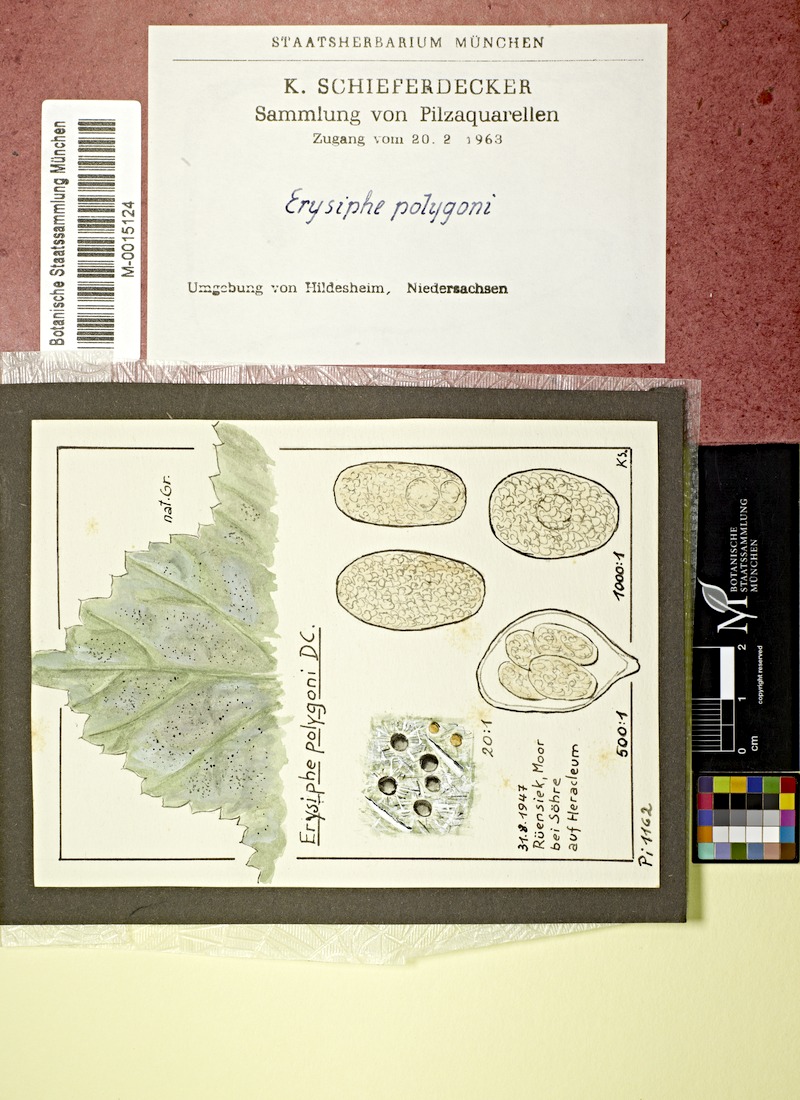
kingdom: Plantae
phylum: Tracheophyta
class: Magnoliopsida
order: Apiales
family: Apiaceae
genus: Heracleum
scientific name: Heracleum
